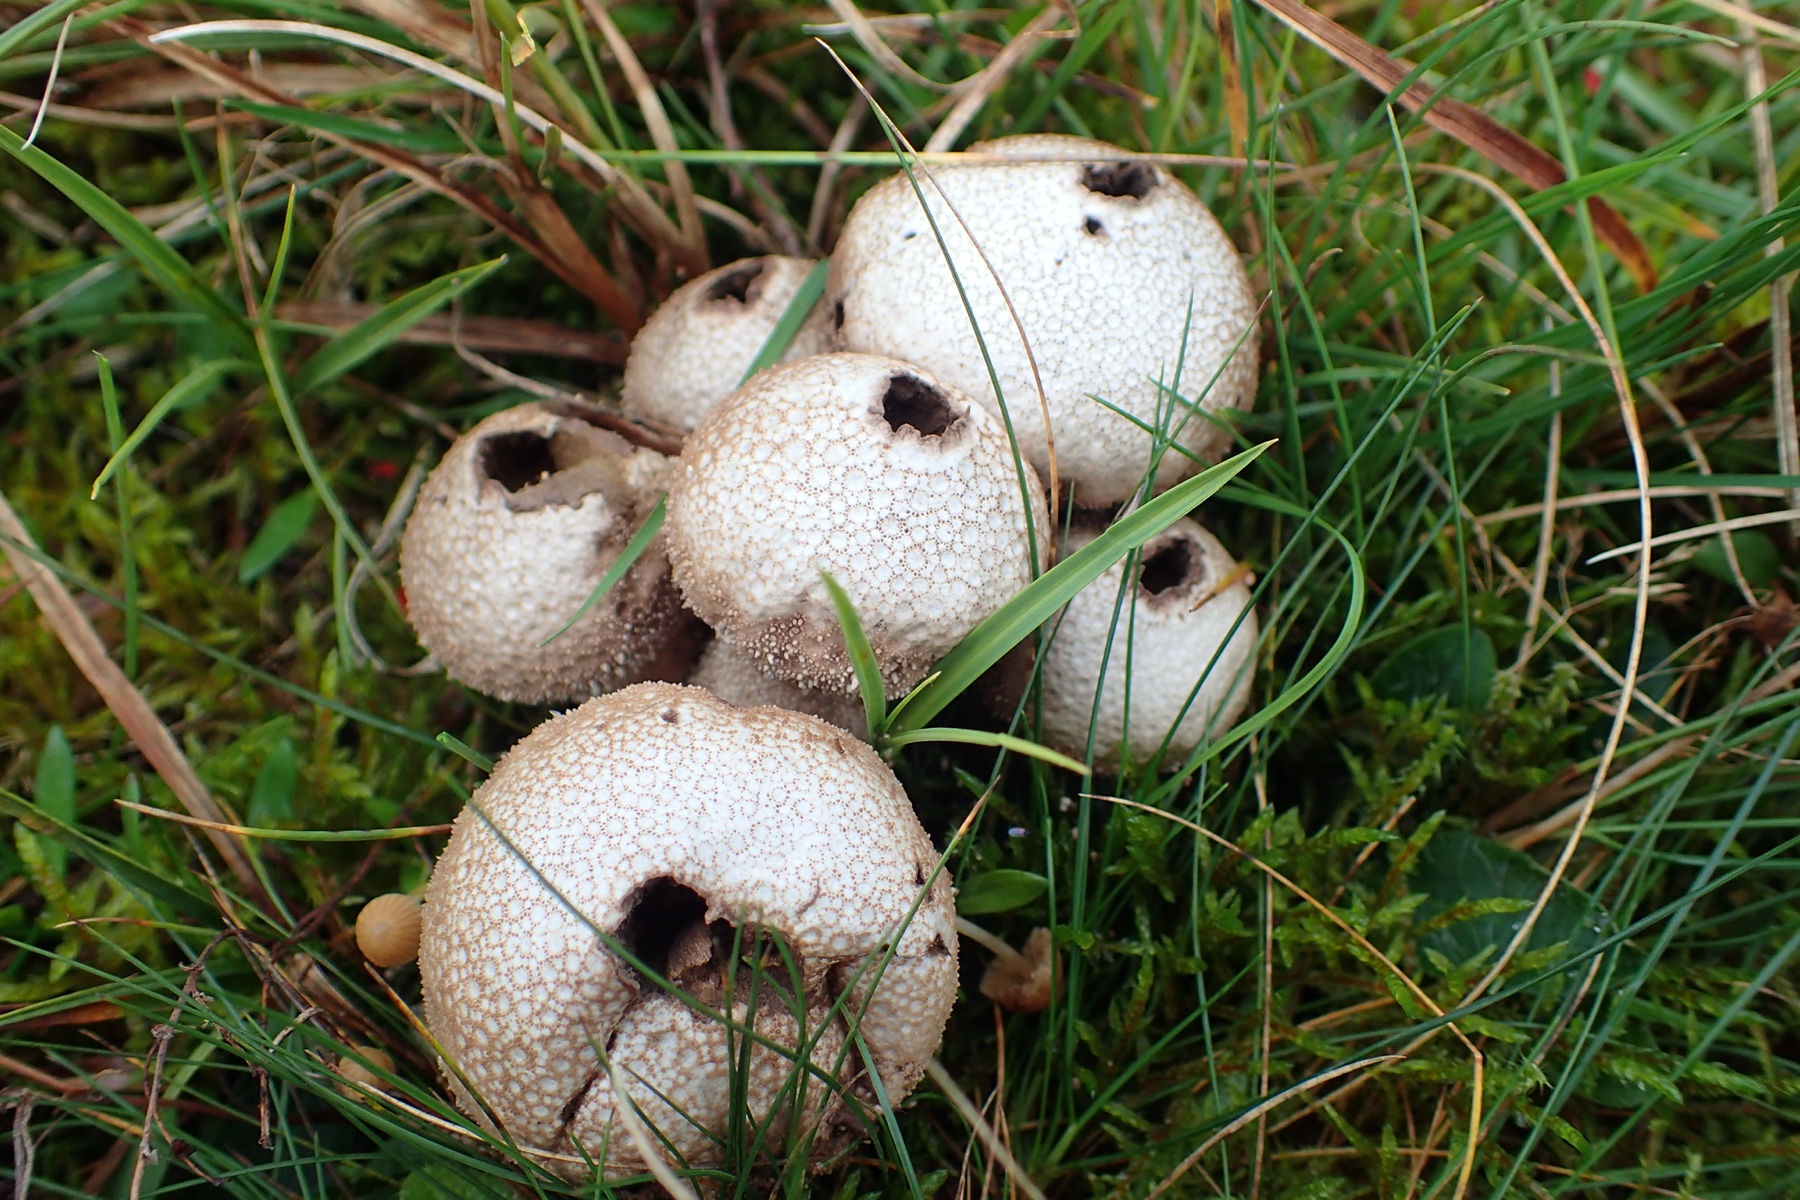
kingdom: Fungi
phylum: Basidiomycota
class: Agaricomycetes
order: Agaricales
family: Lycoperdaceae
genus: Lycoperdon
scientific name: Lycoperdon perlatum
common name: krystal-støvbold
